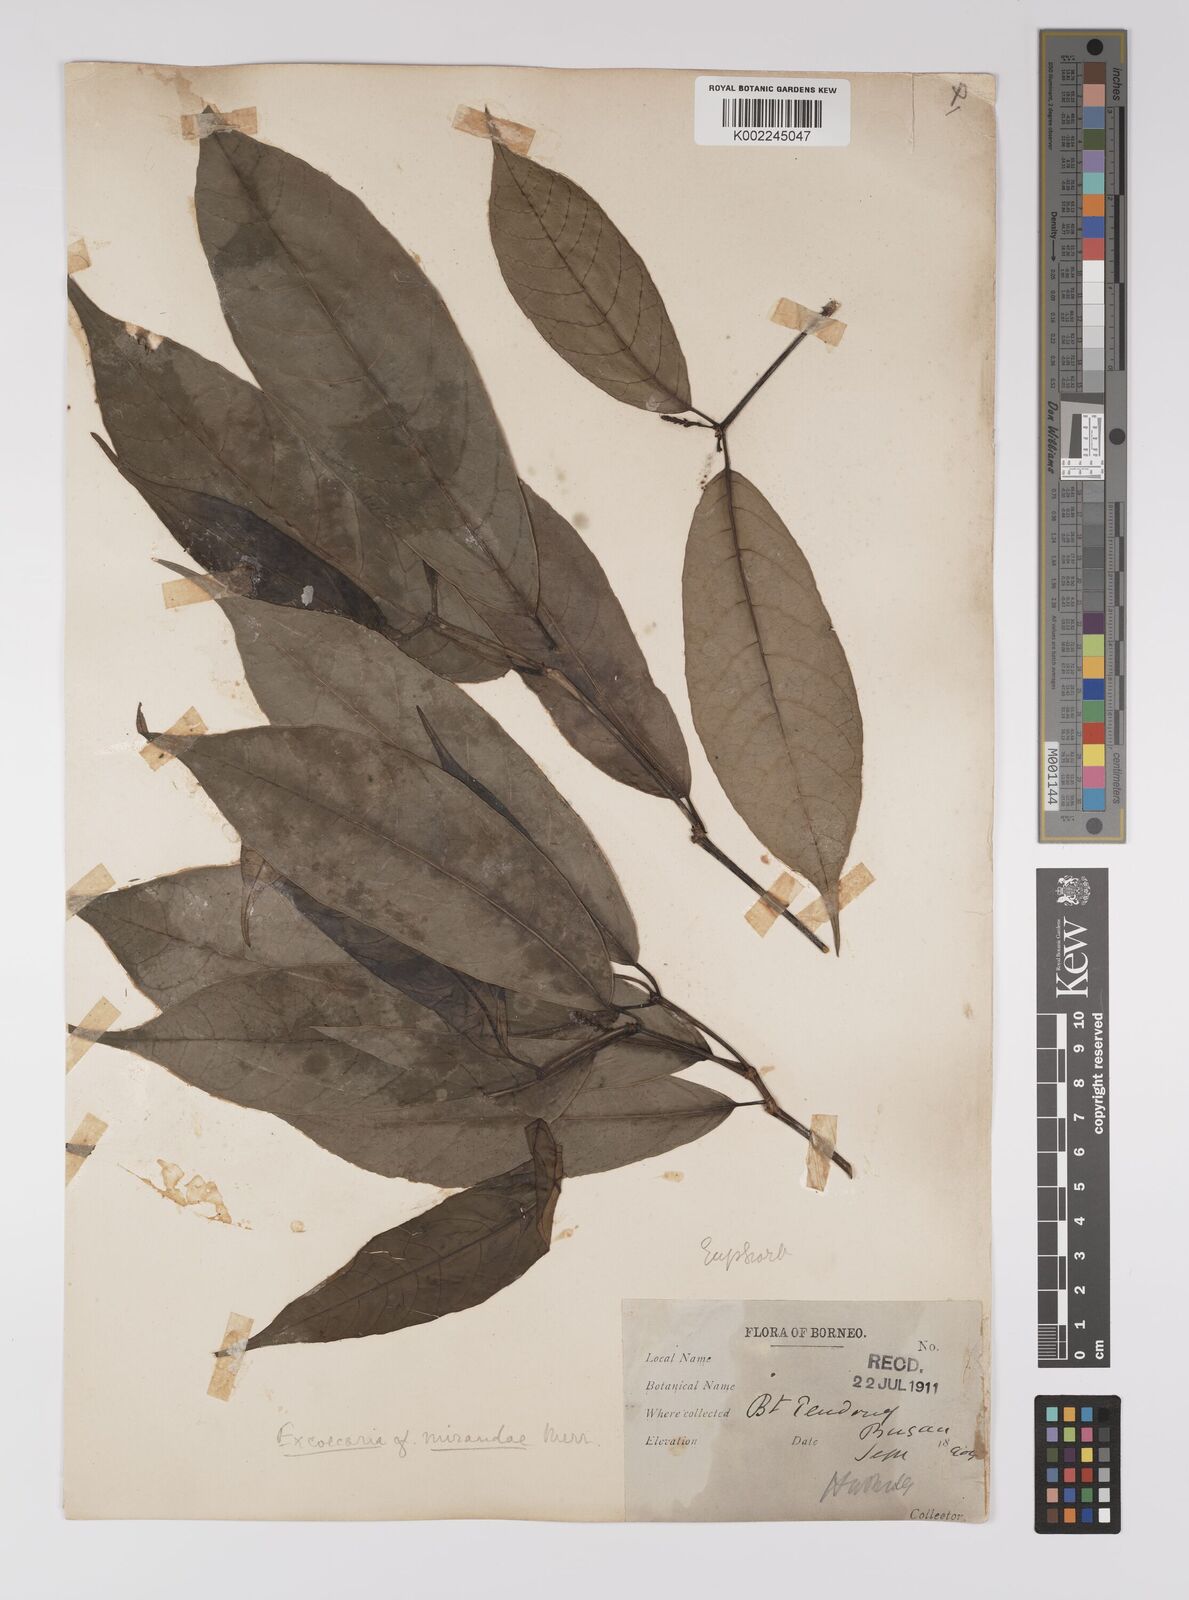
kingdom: Plantae
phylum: Tracheophyta
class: Magnoliopsida
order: Malpighiales
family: Euphorbiaceae
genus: Excoecaria
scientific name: Excoecaria borneensis
